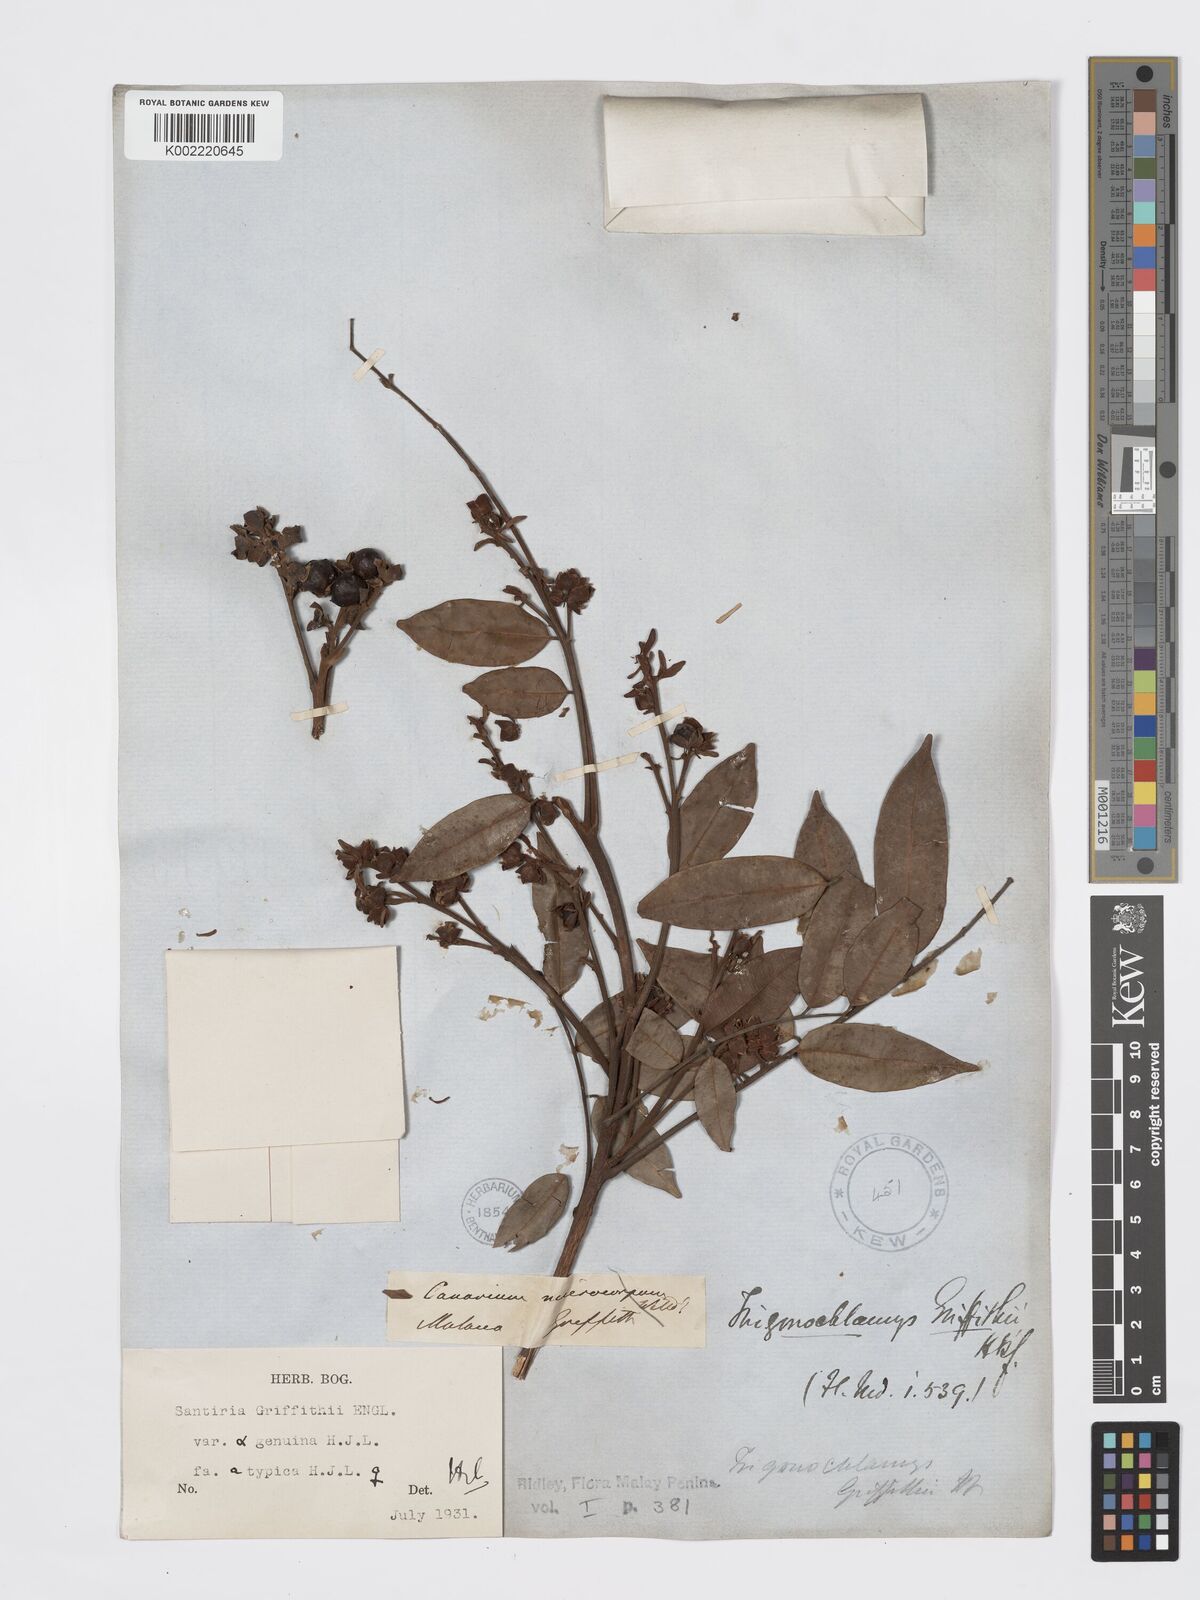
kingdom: Plantae
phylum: Tracheophyta
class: Magnoliopsida
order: Sapindales
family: Burseraceae
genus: Santiria
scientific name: Santiria griffithii
